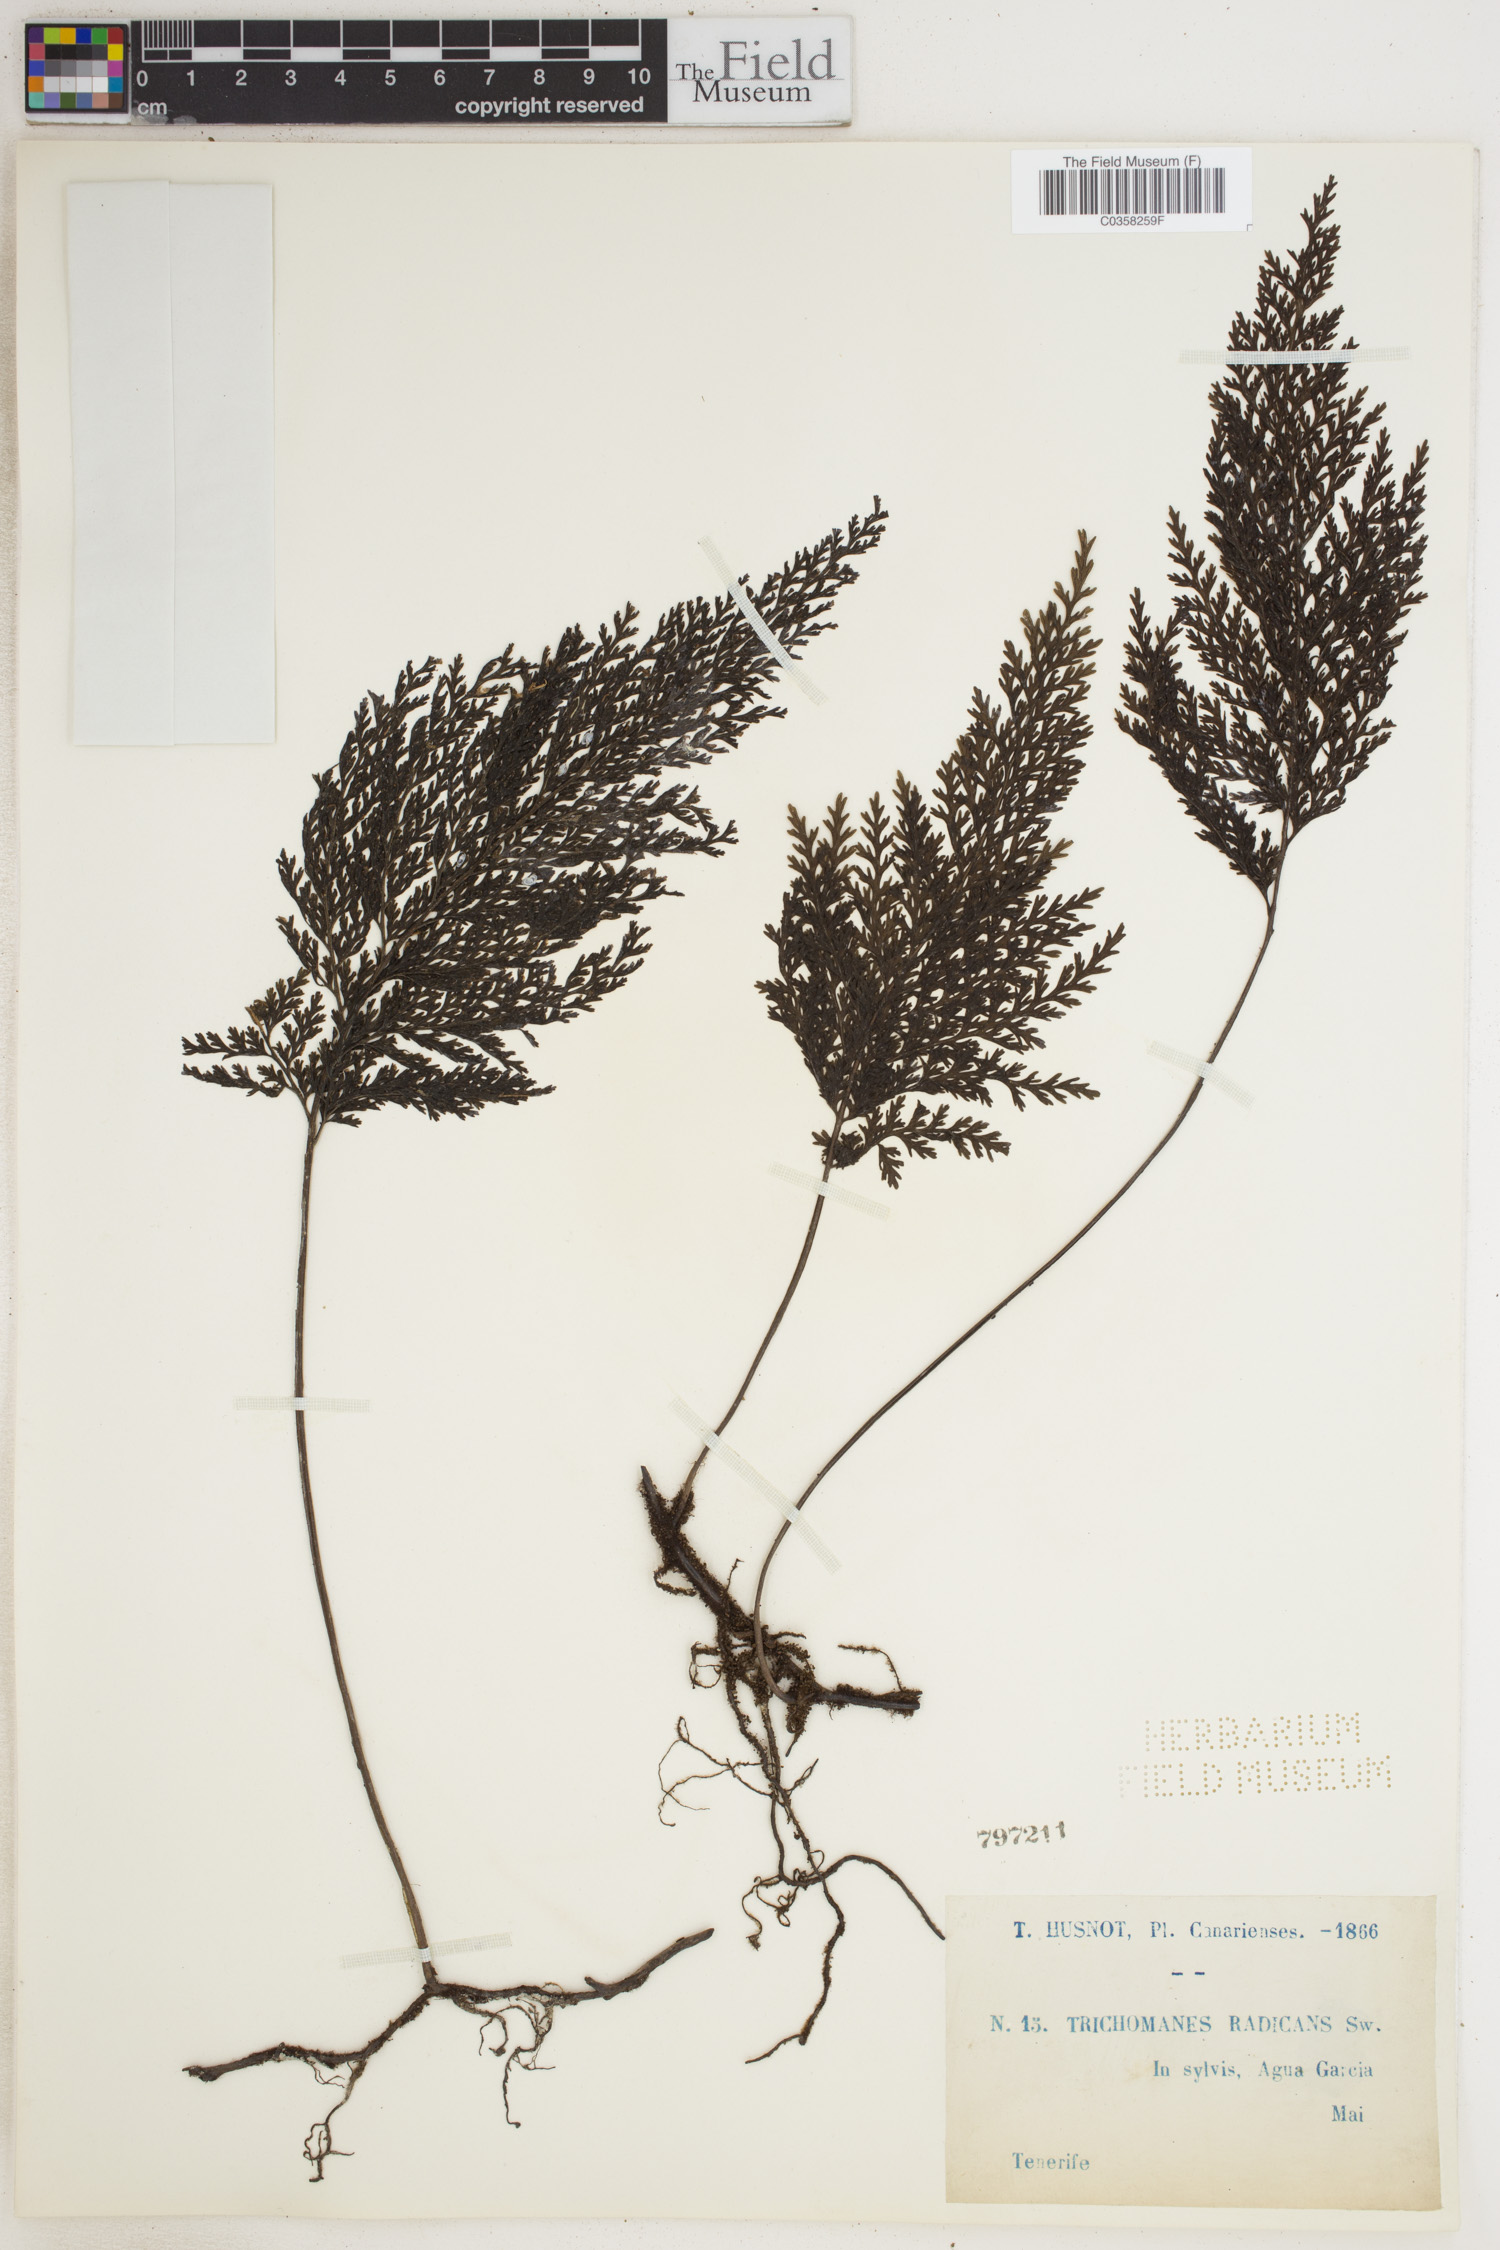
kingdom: Plantae
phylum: Tracheophyta
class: Polypodiopsida
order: Hymenophyllales
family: Hymenophyllaceae
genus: Vandenboschia
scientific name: Vandenboschia radicans
